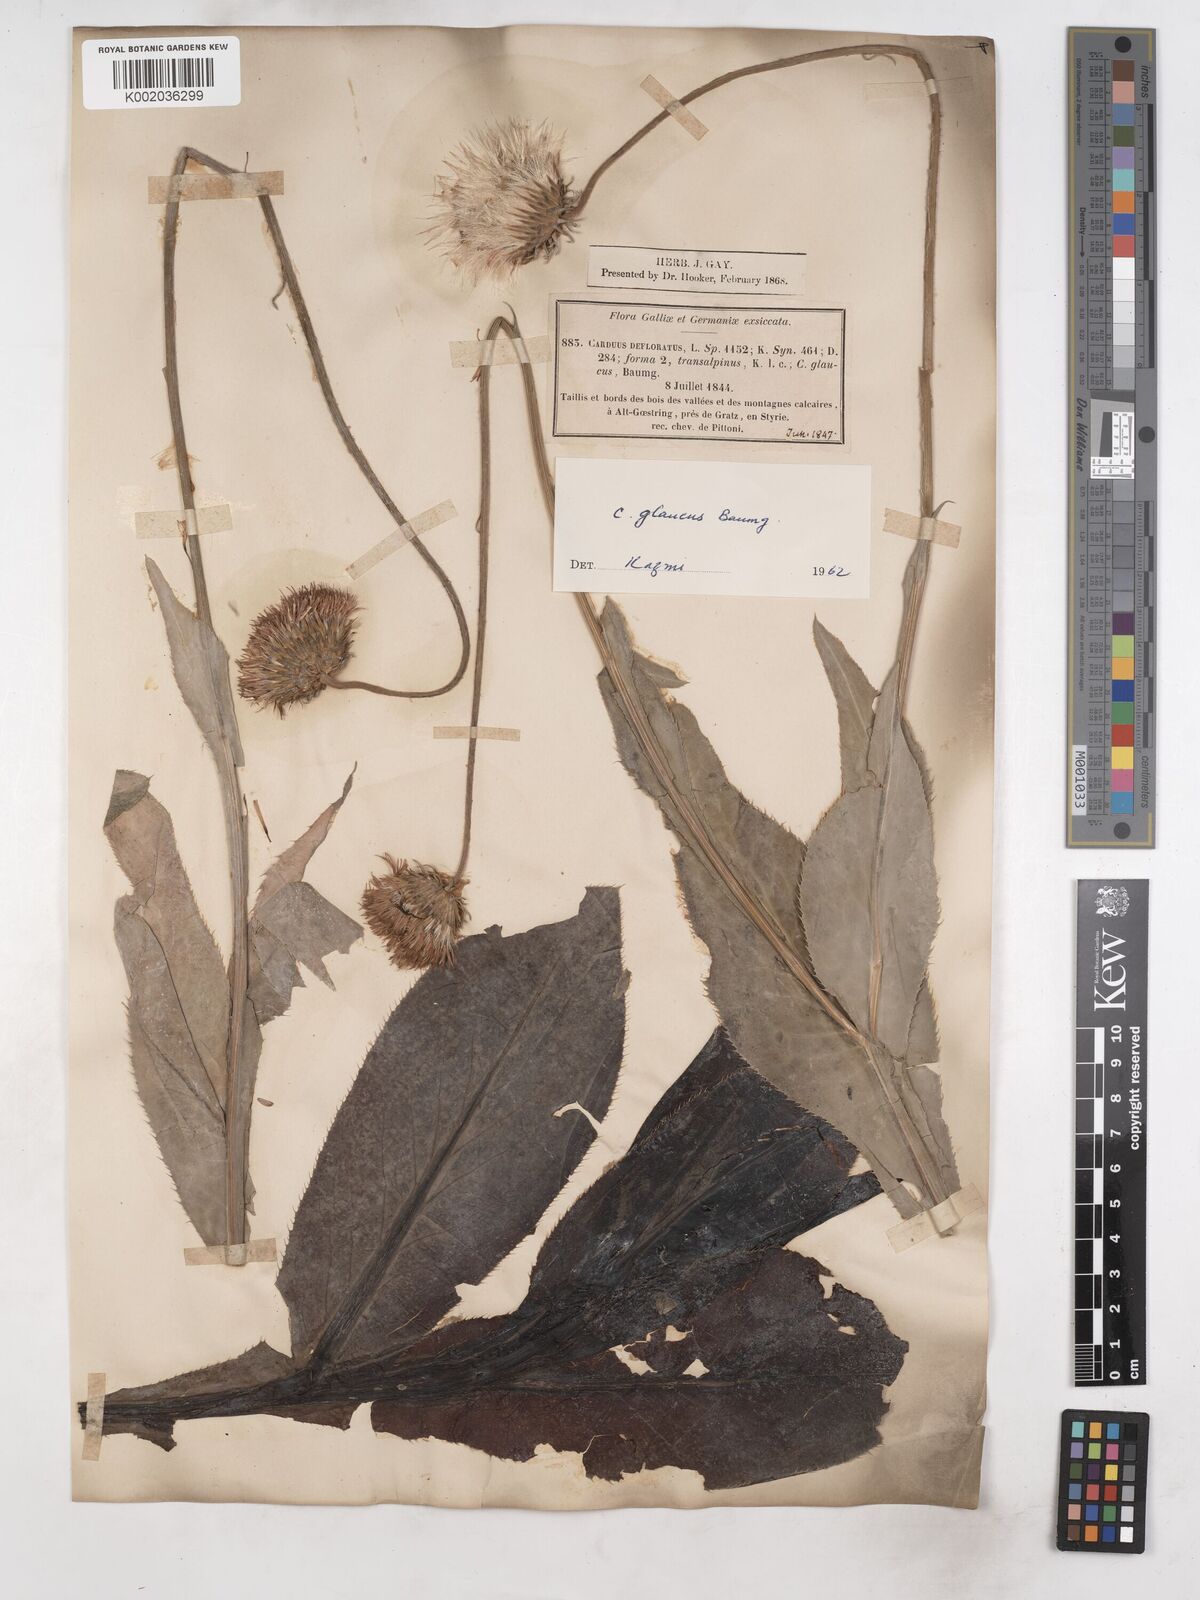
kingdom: Plantae
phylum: Tracheophyta
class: Magnoliopsida
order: Asterales
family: Asteraceae
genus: Carduus
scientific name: Carduus defloratus
